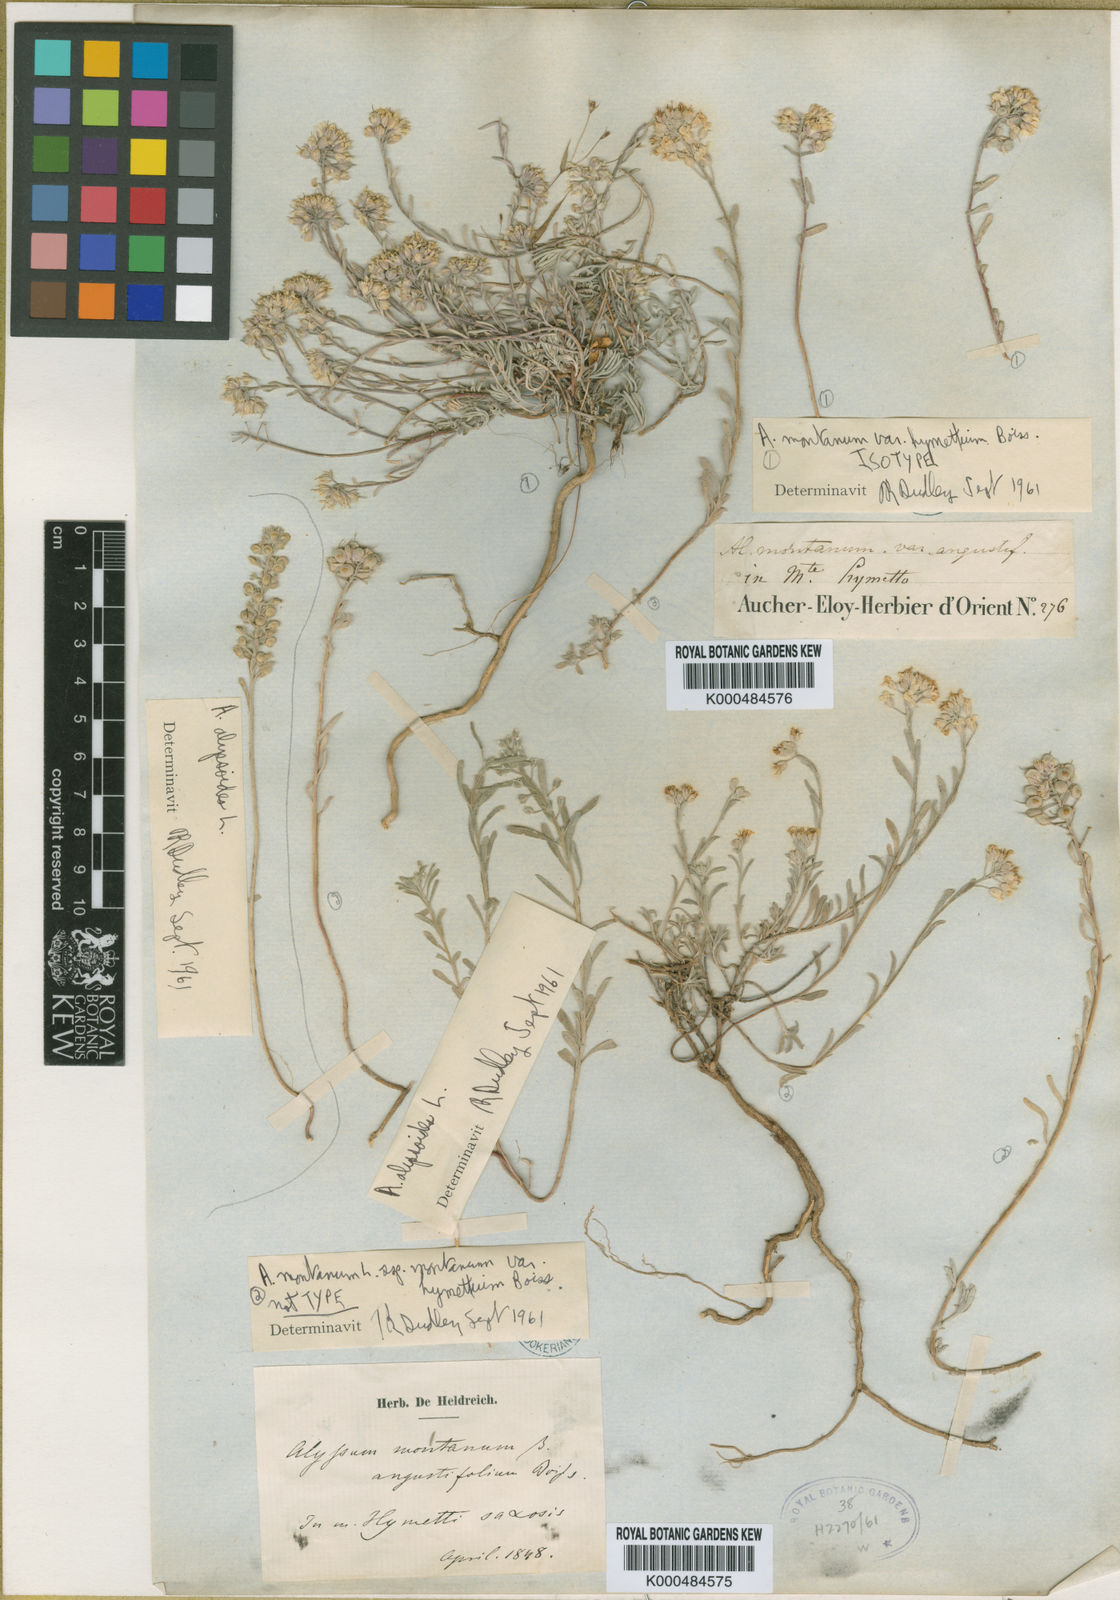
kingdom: Plantae
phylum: Tracheophyta
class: Magnoliopsida
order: Brassicales
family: Brassicaceae
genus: Alyssum
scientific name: Alyssum montanum
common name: Mountain alison
